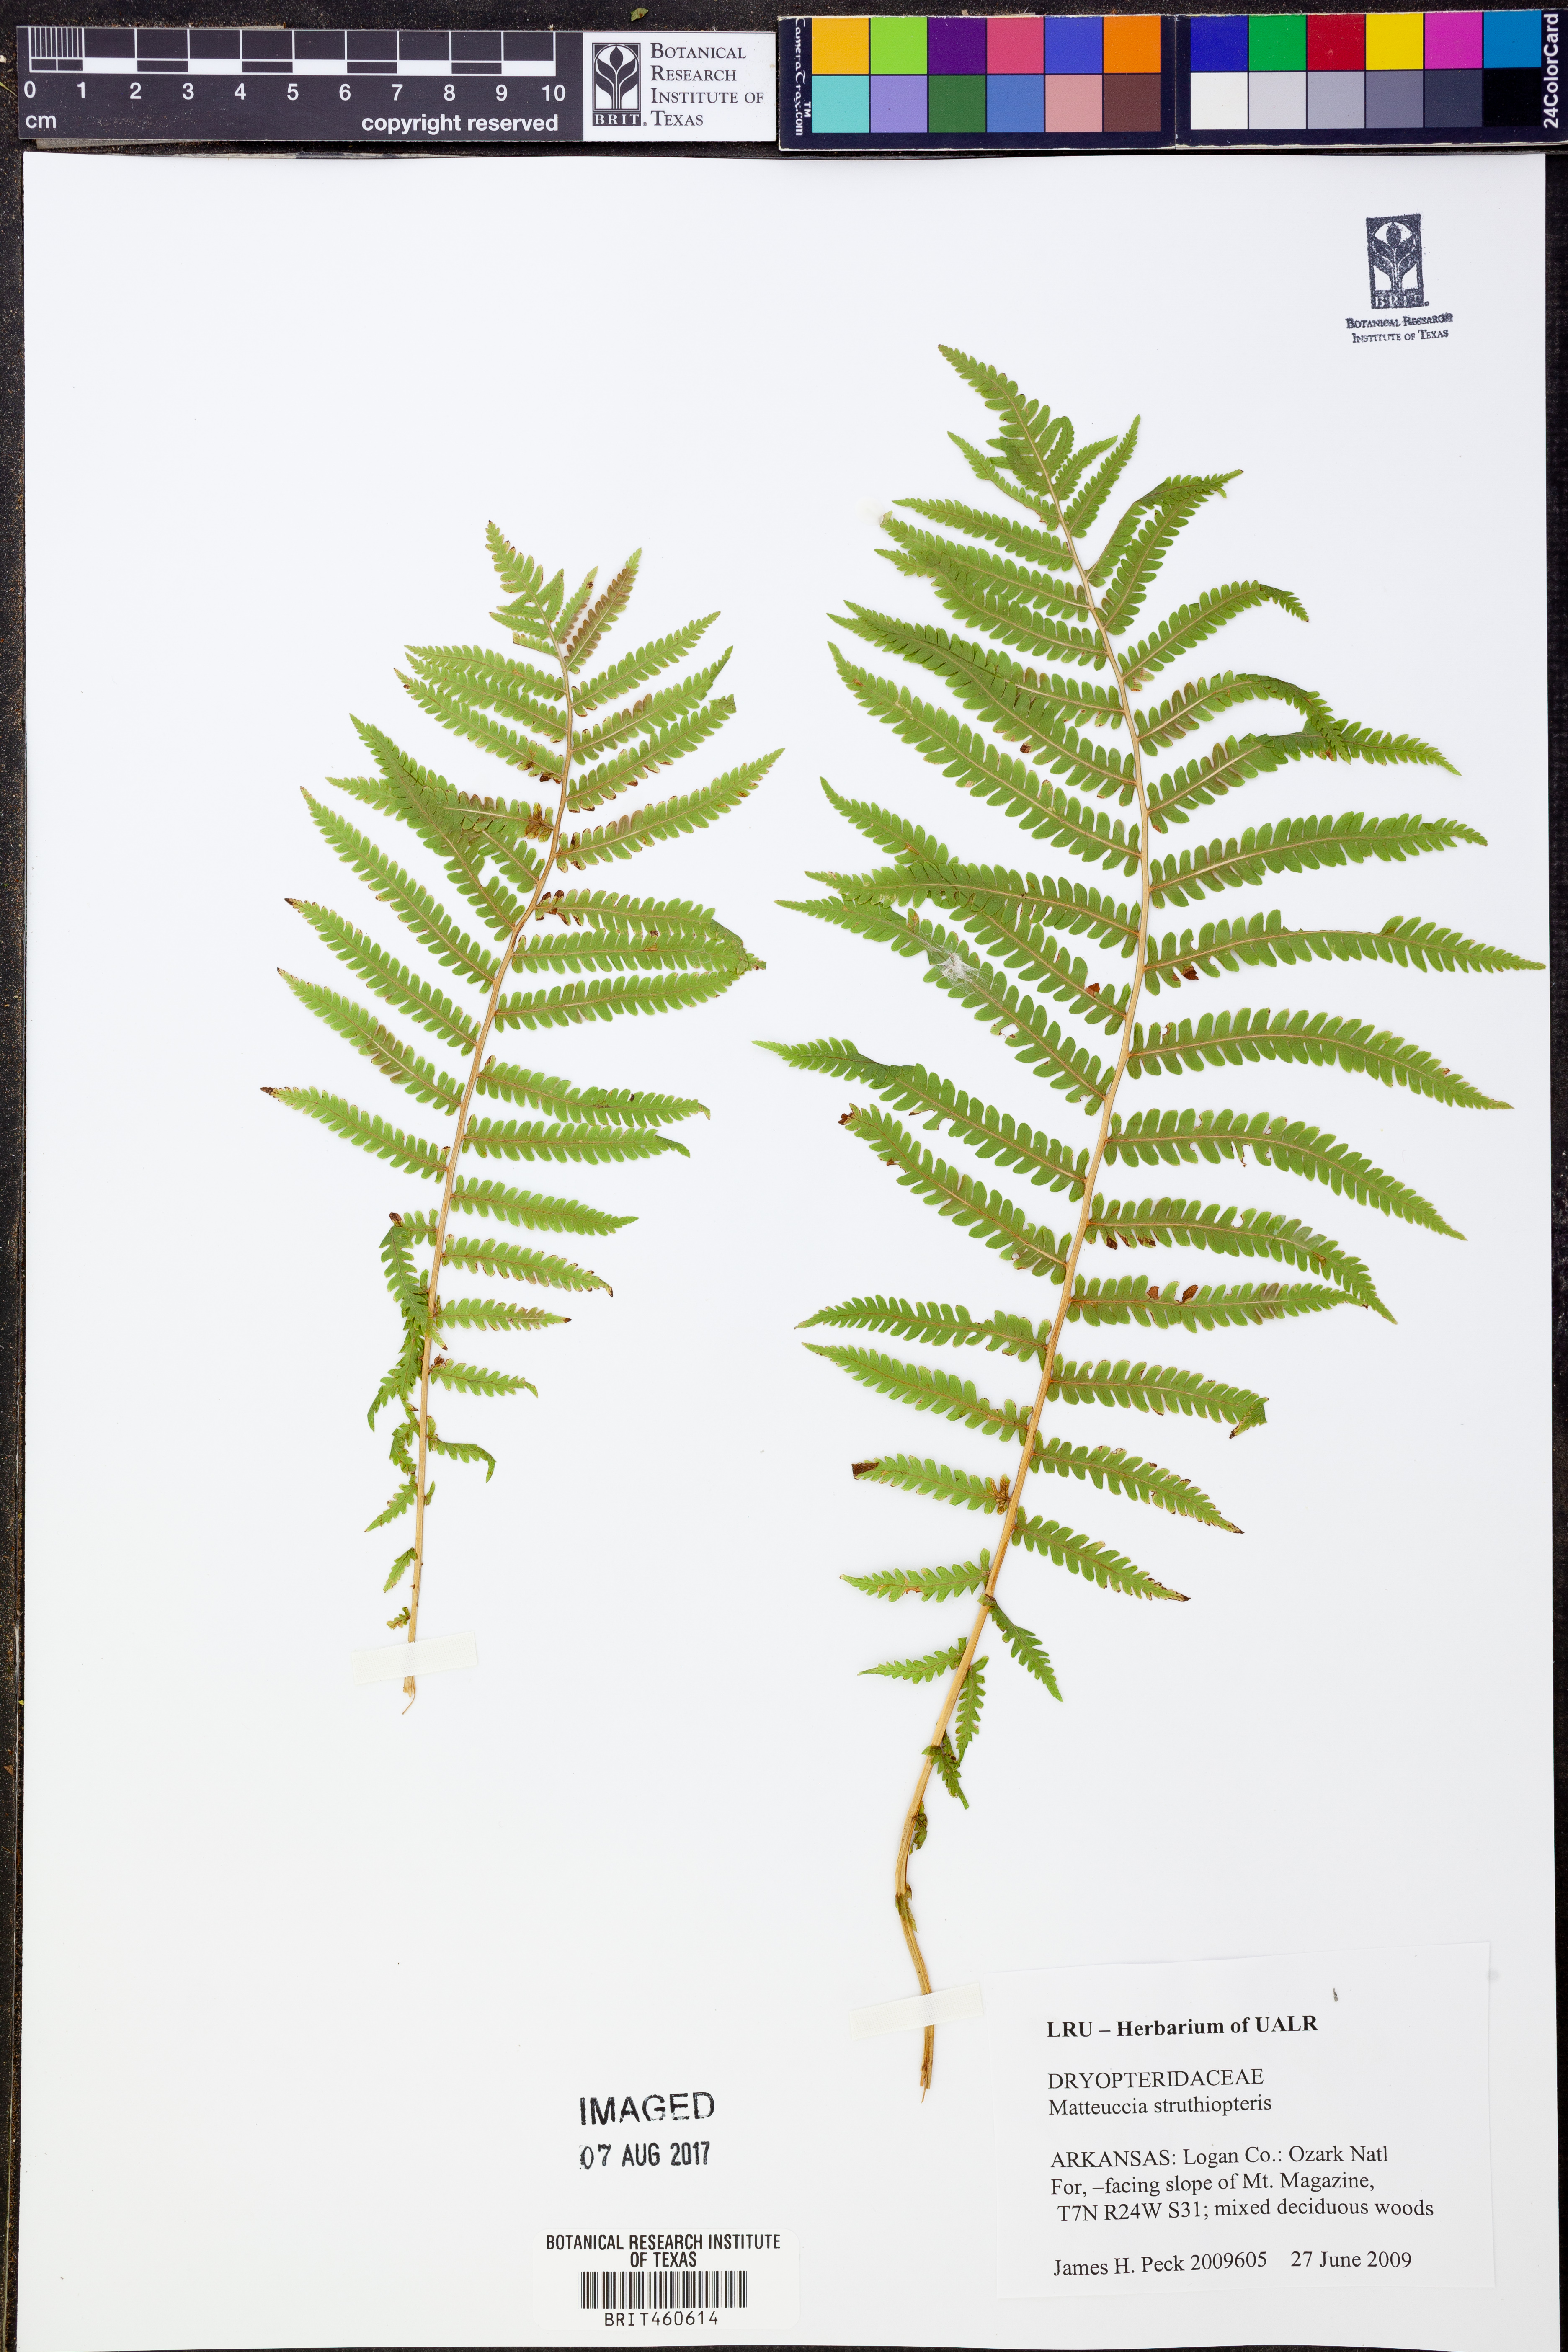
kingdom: Plantae
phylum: Tracheophyta
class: Polypodiopsida
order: Polypodiales
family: Onocleaceae
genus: Matteuccia
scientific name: Matteuccia struthiopteris
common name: Ostrich fern
